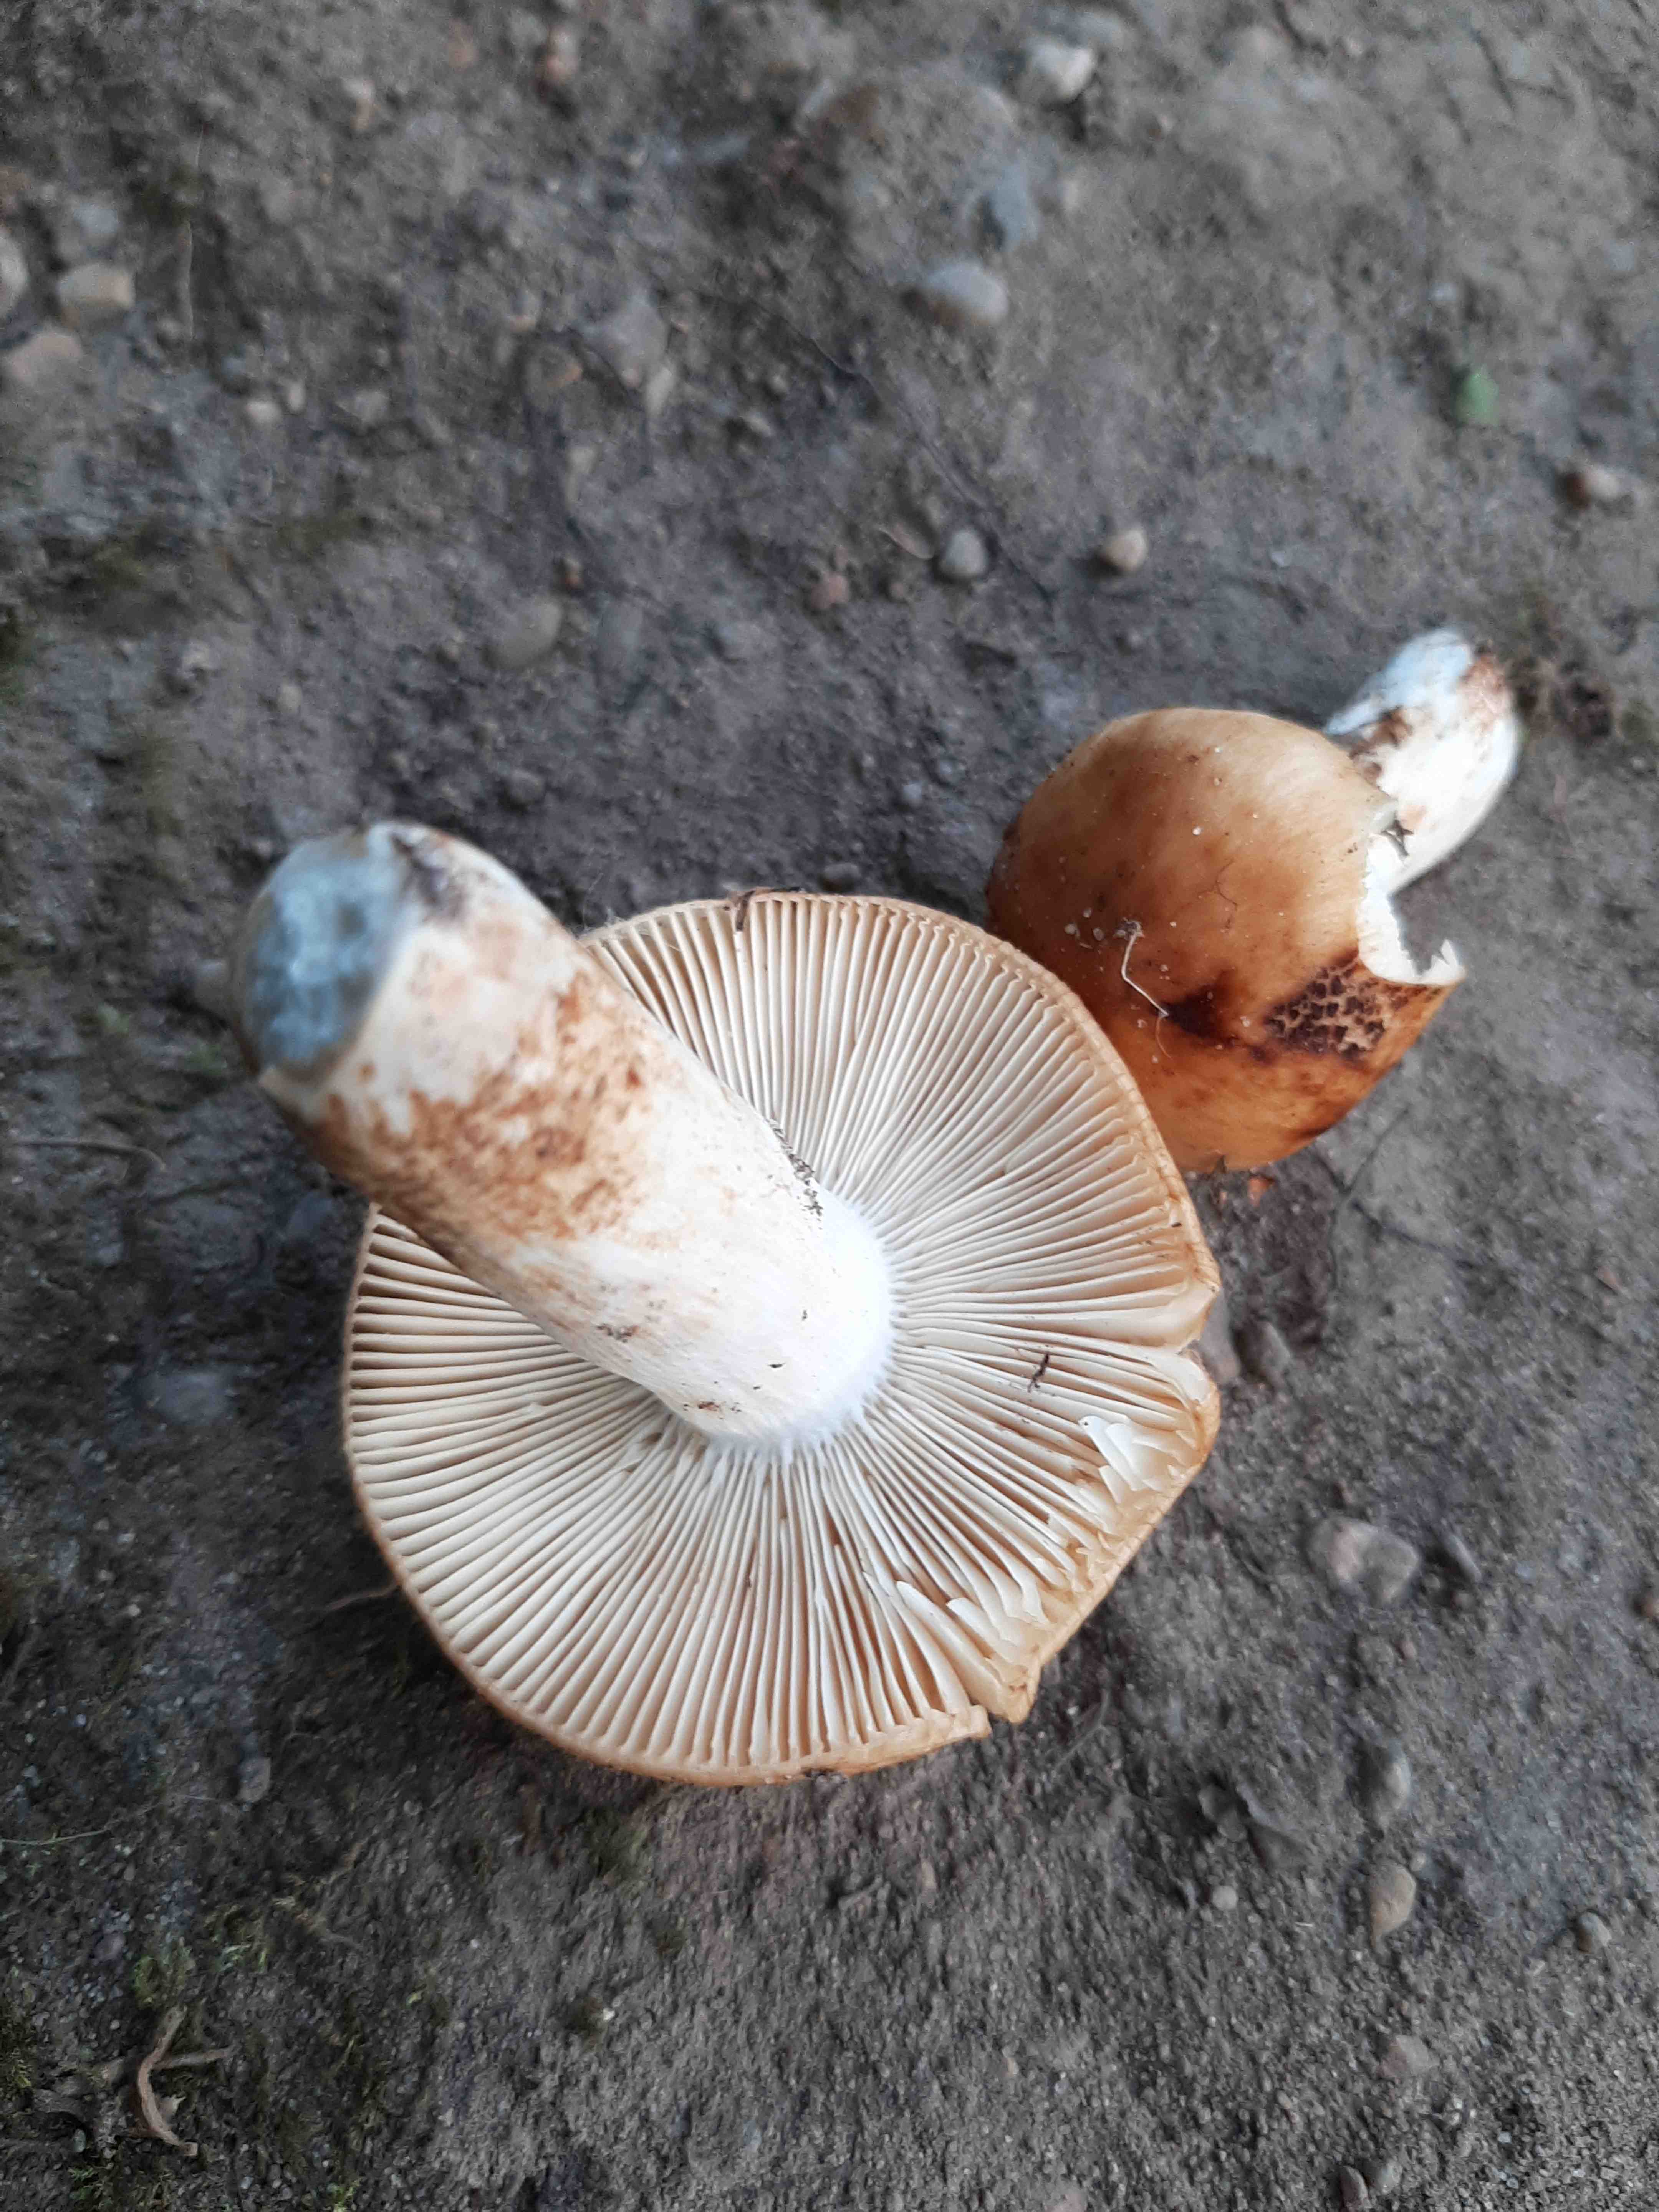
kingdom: Fungi
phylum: Basidiomycota
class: Agaricomycetes
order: Russulales
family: Russulaceae
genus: Russula
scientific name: Russula foetens
